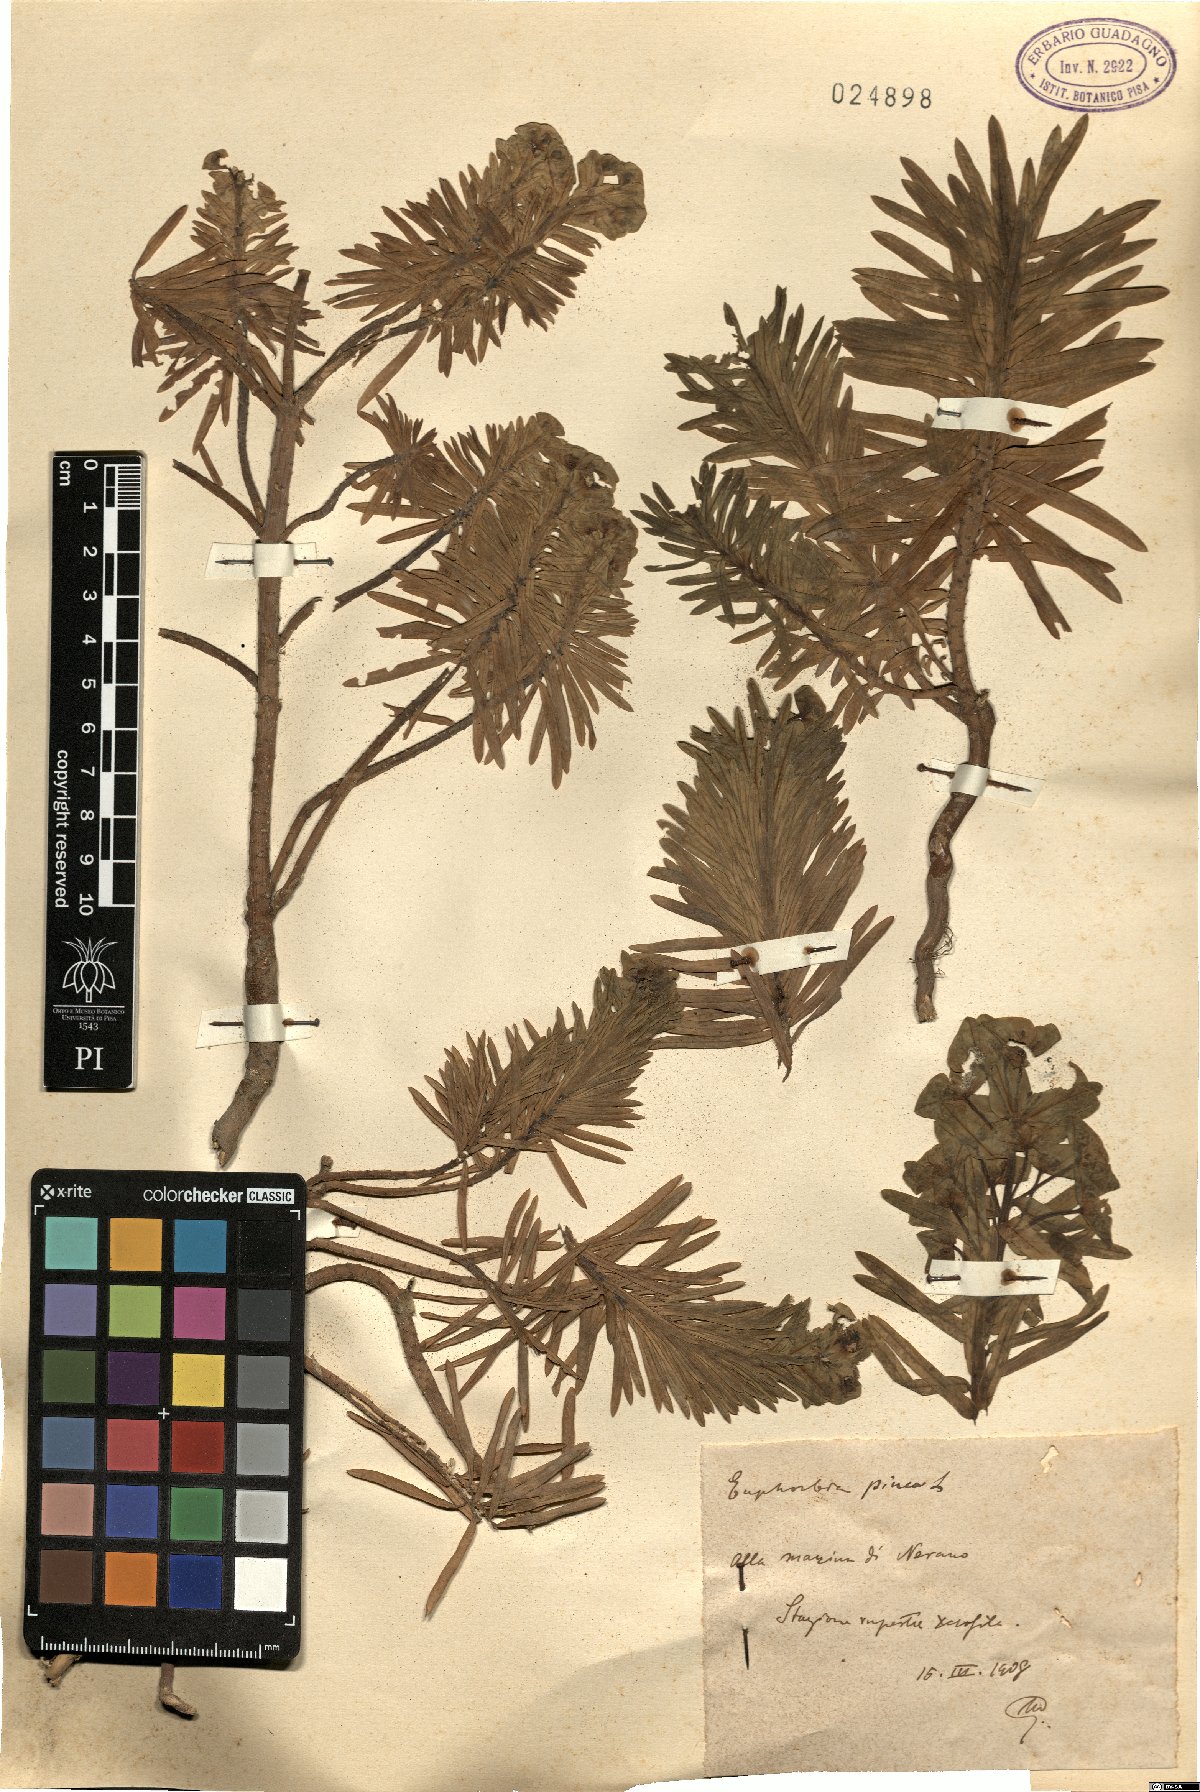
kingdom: Plantae
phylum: Tracheophyta
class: Magnoliopsida
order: Malpighiales
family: Euphorbiaceae
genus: Euphorbia
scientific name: Euphorbia segetalis
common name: Corn spurge
